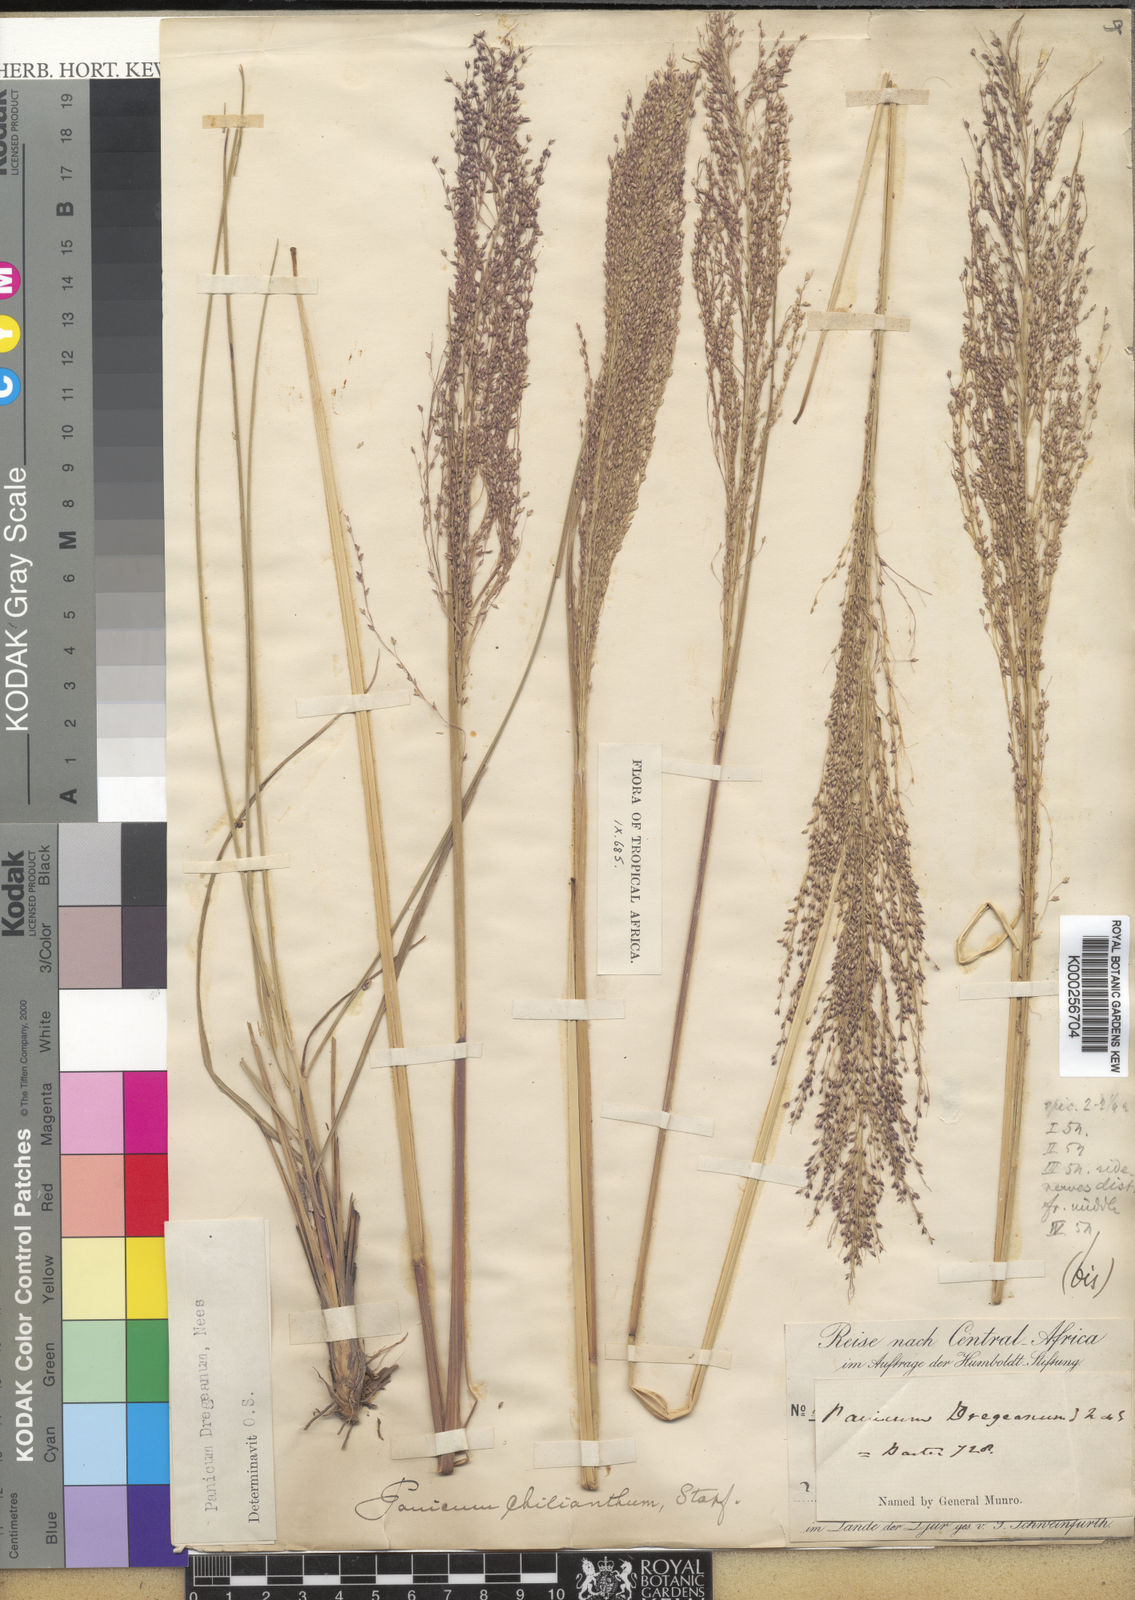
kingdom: Plantae
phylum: Tracheophyta
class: Liliopsida
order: Poales
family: Poaceae
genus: Panicum
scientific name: Panicum dregeanum
